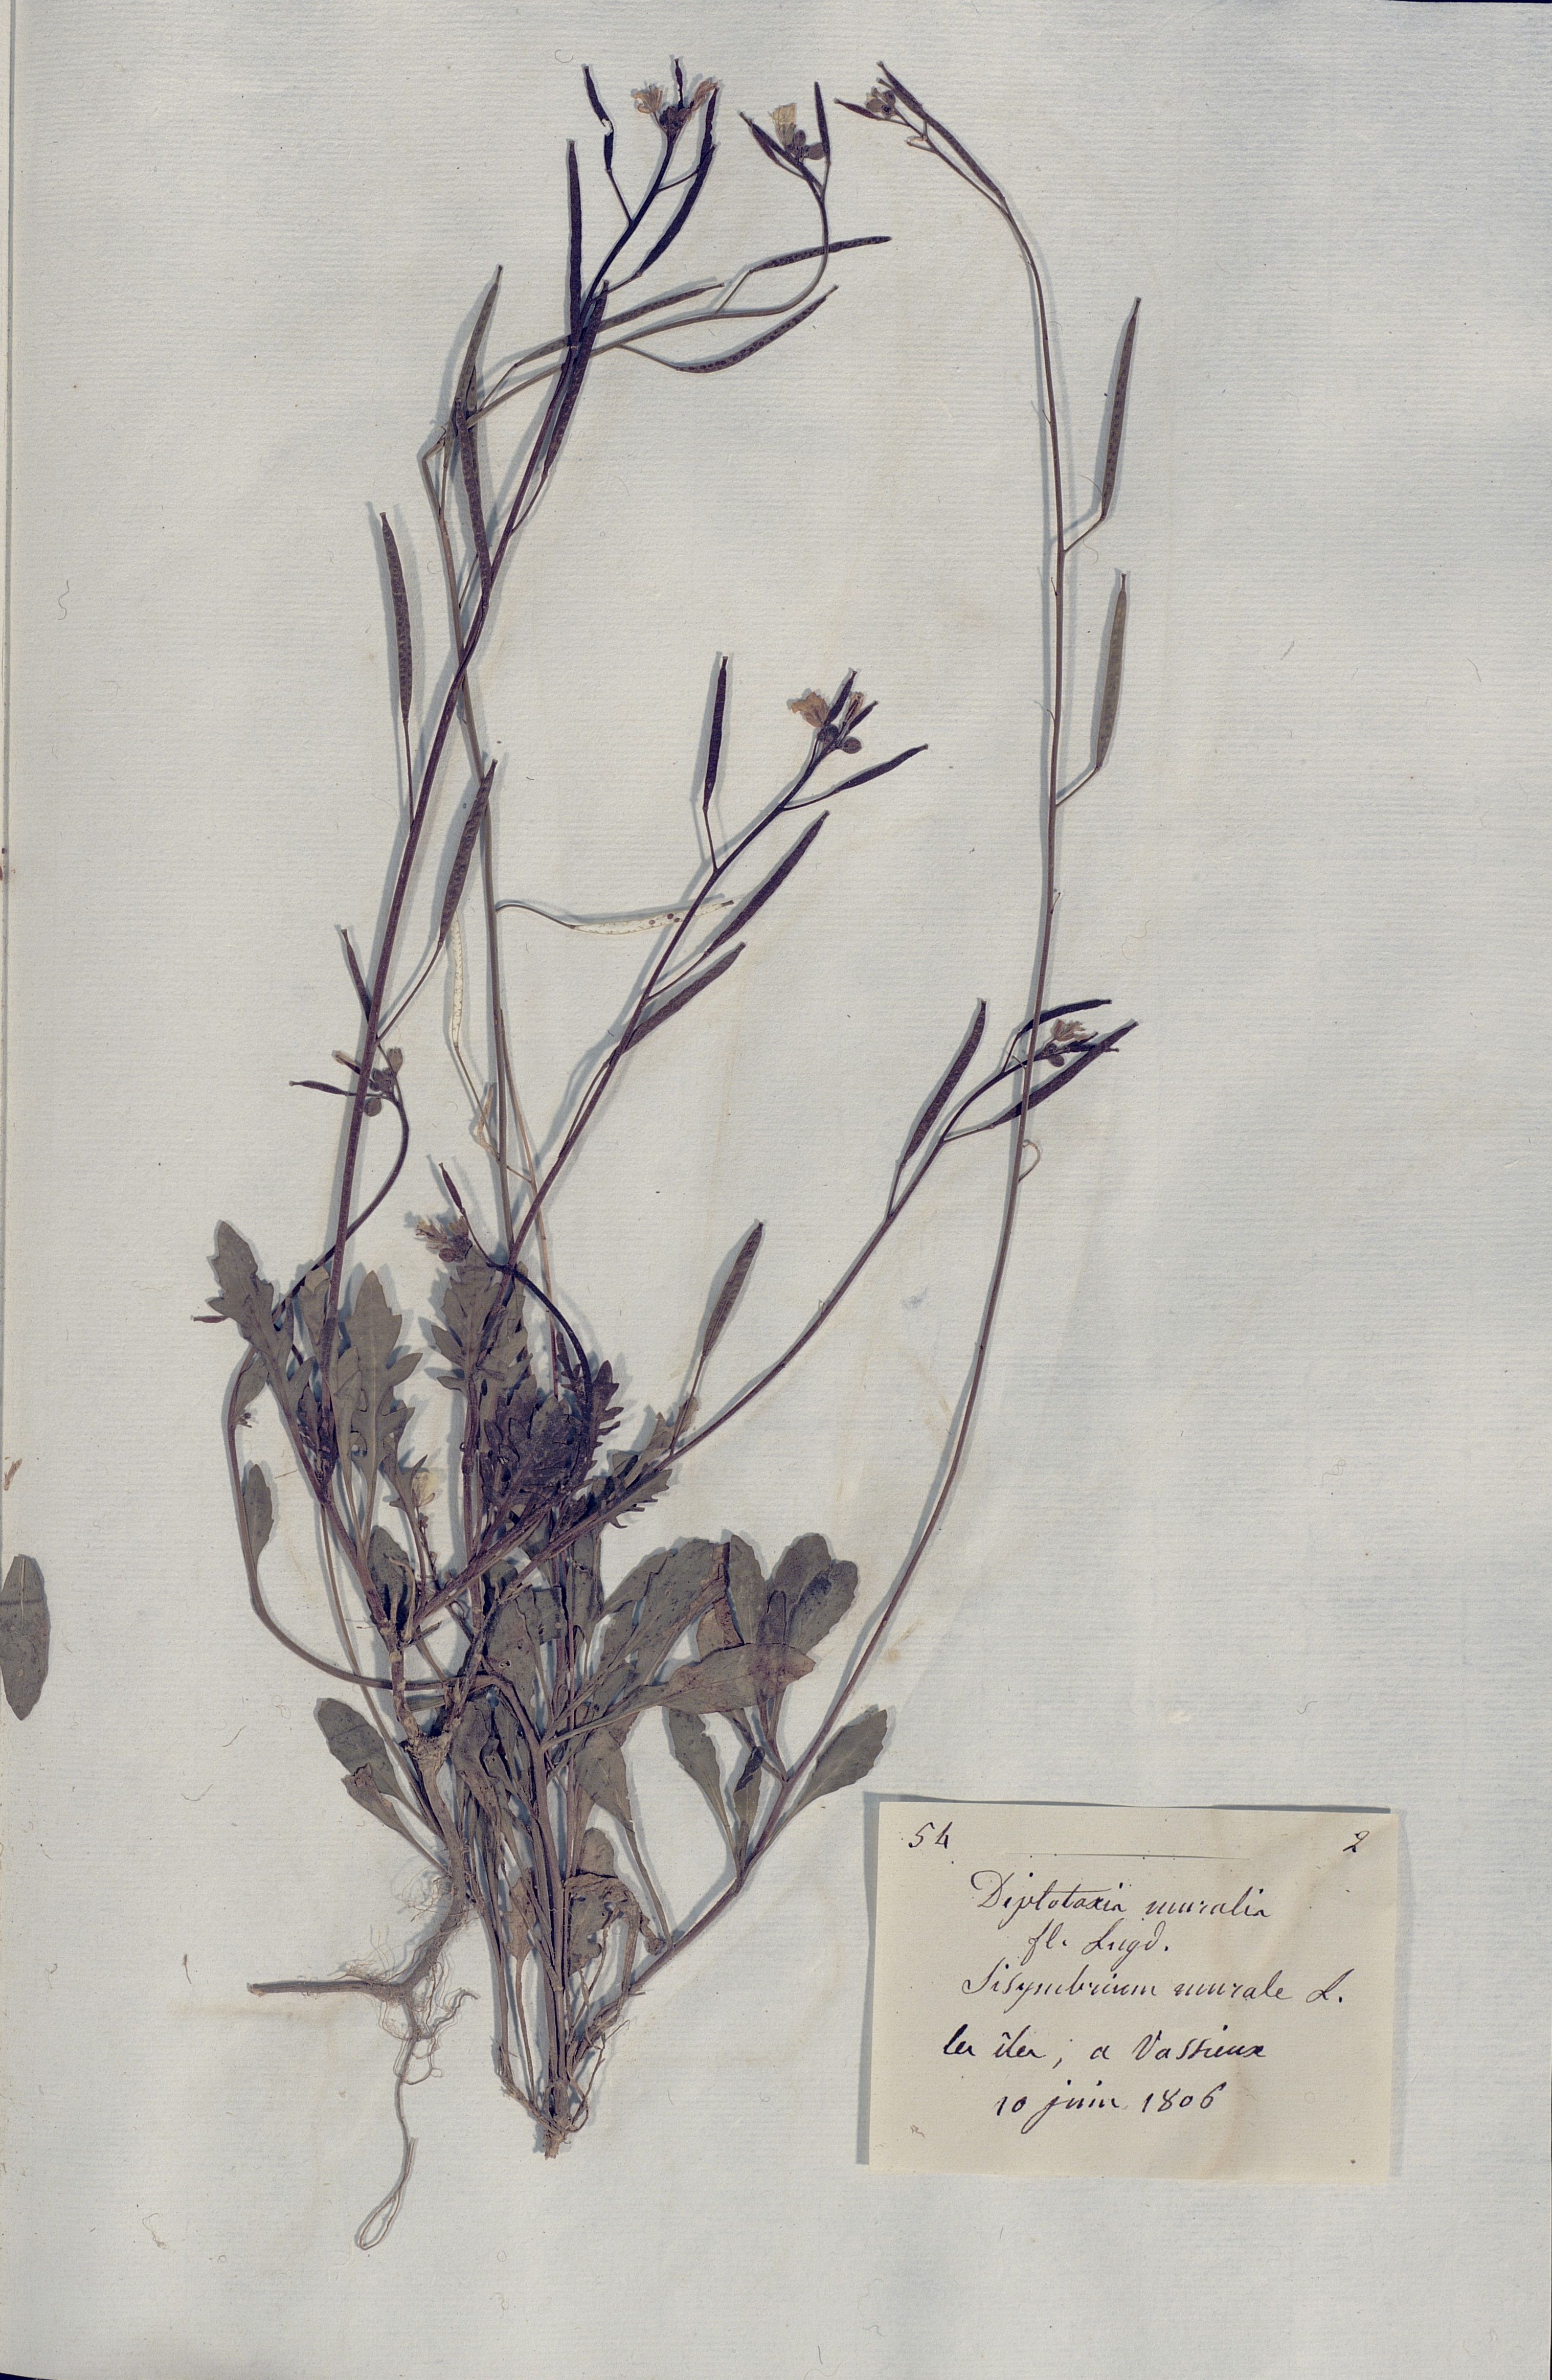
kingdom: Plantae
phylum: Tracheophyta
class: Magnoliopsida
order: Brassicales
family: Brassicaceae
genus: Diplotaxis
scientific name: Diplotaxis muralis
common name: Annual wall-rocket
